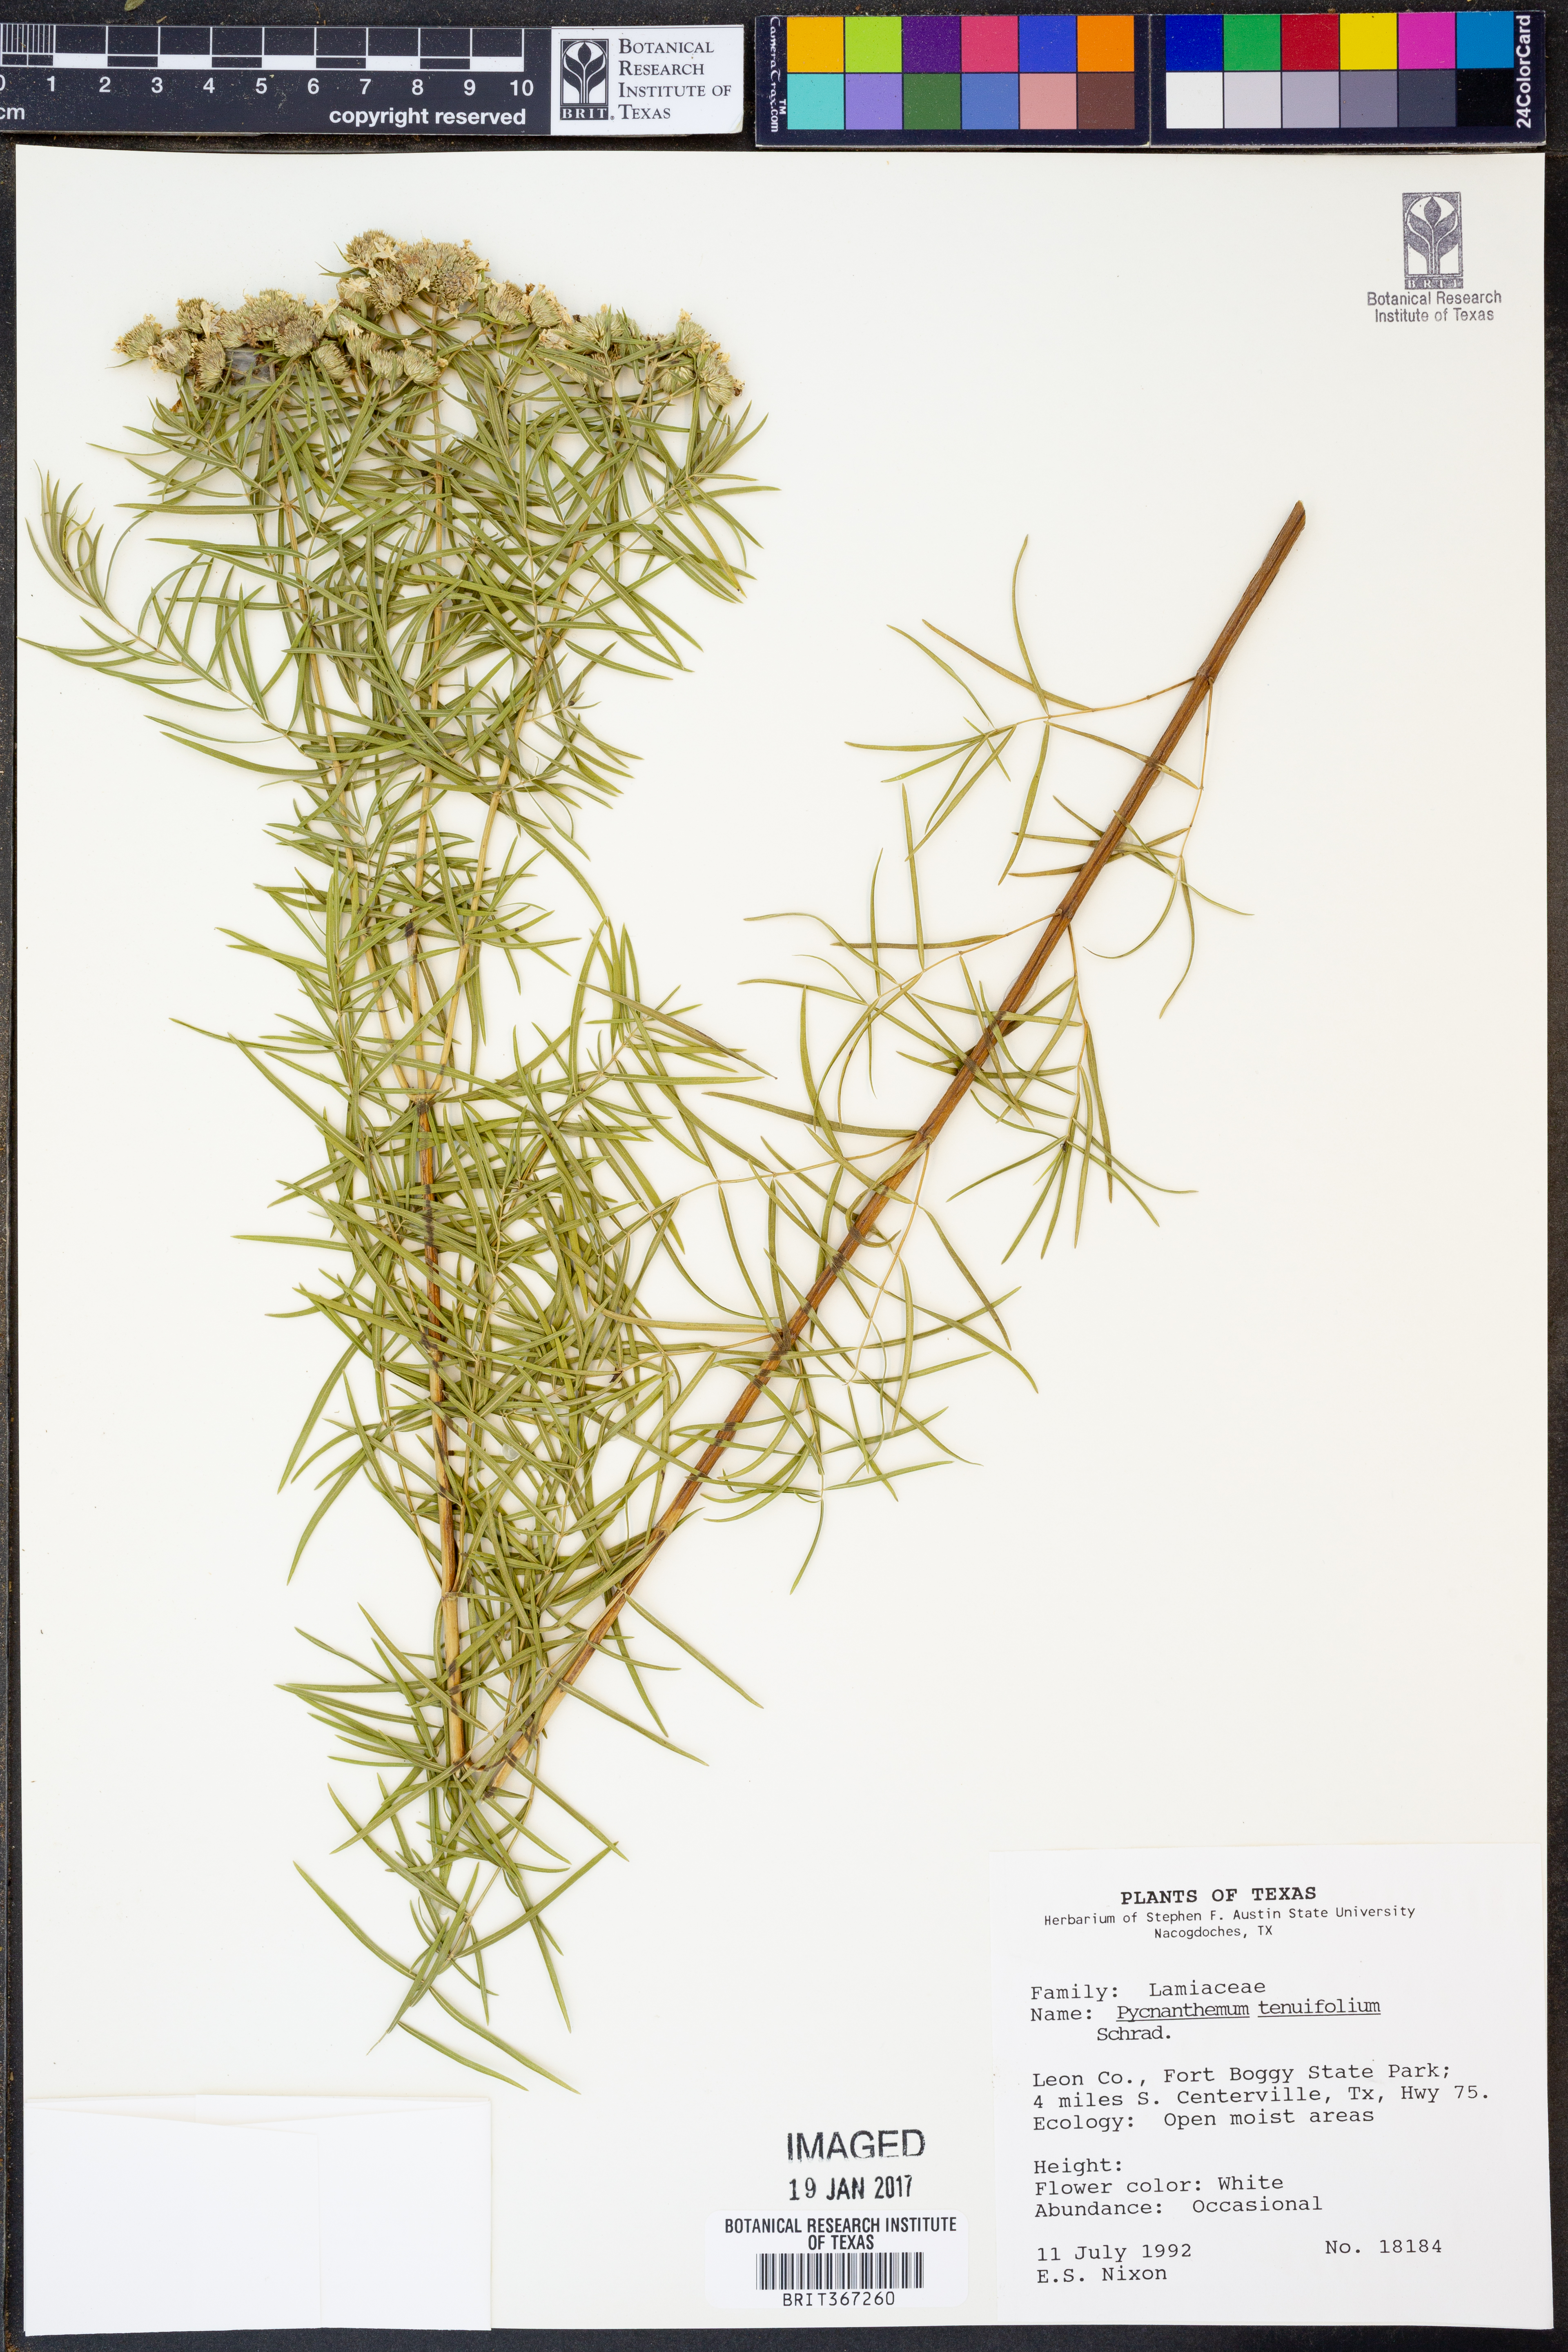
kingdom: Plantae
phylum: Tracheophyta
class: Magnoliopsida
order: Lamiales
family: Lamiaceae
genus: Pycnanthemum
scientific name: Pycnanthemum tenuifolium
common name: Narrow-leaf mountain-mint
